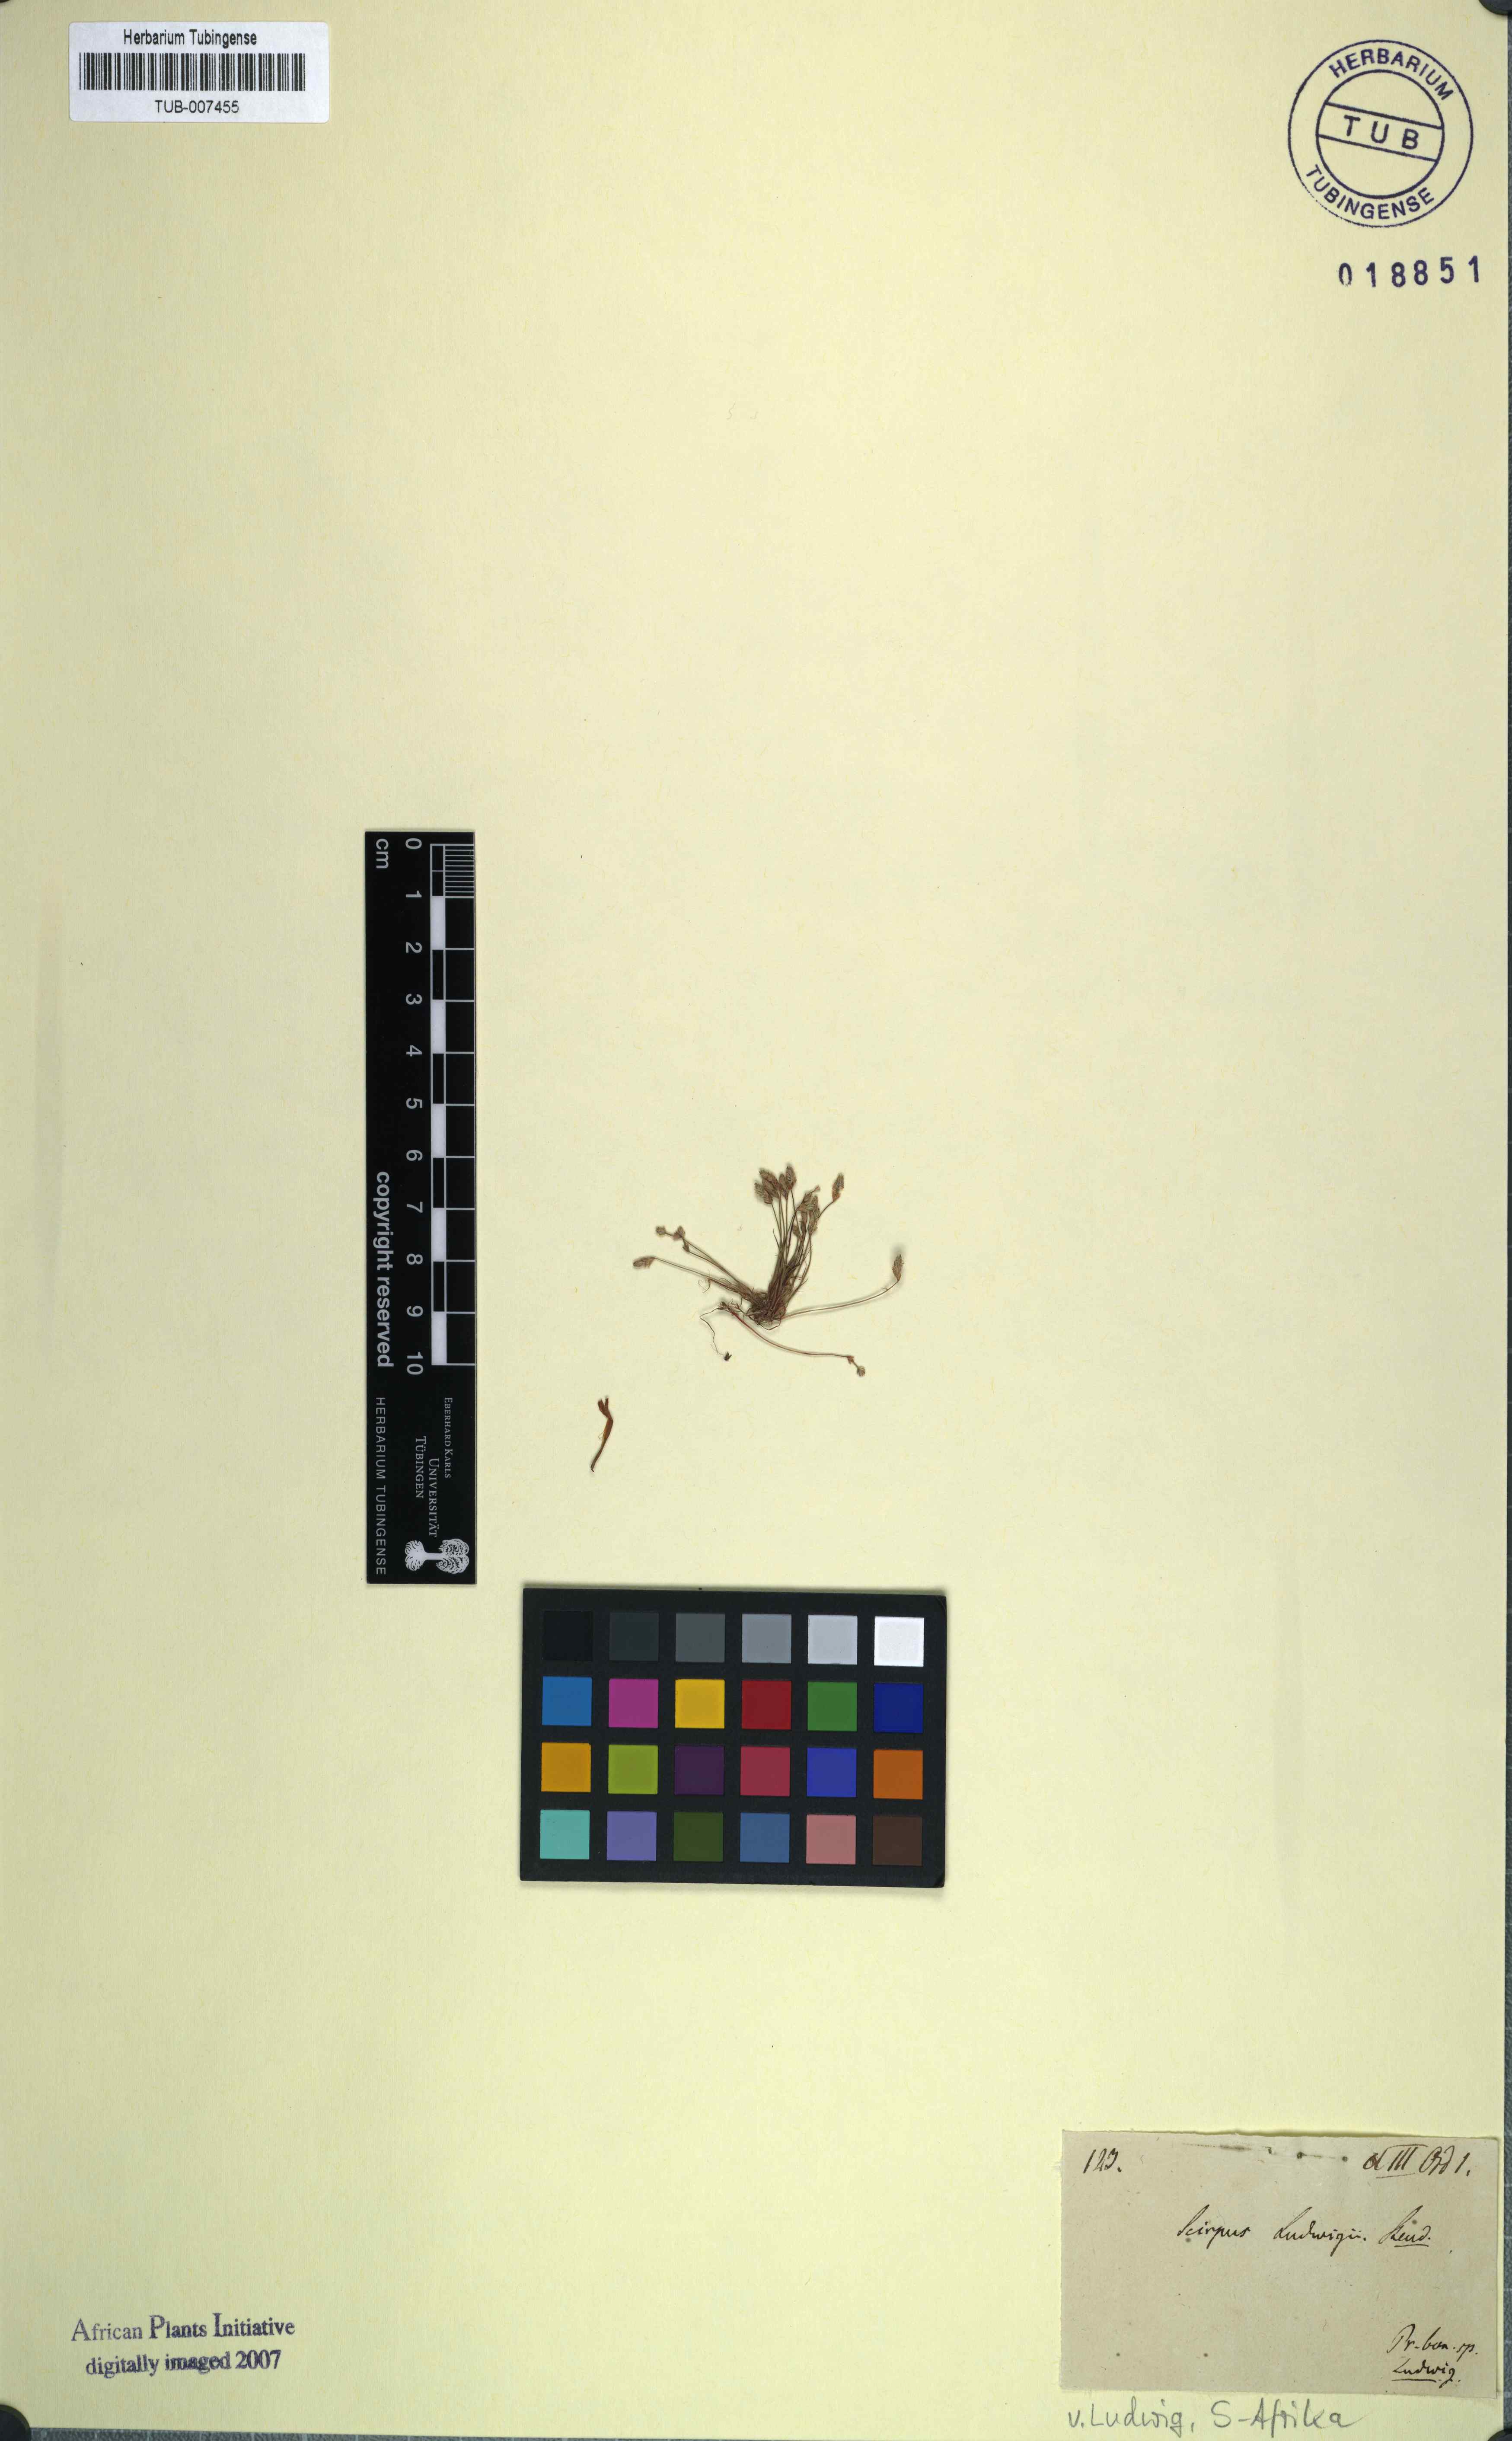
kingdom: Plantae
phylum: Tracheophyta
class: Liliopsida
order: Poales
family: Cyperaceae
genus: Isolepis
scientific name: Isolepis ludwigii
